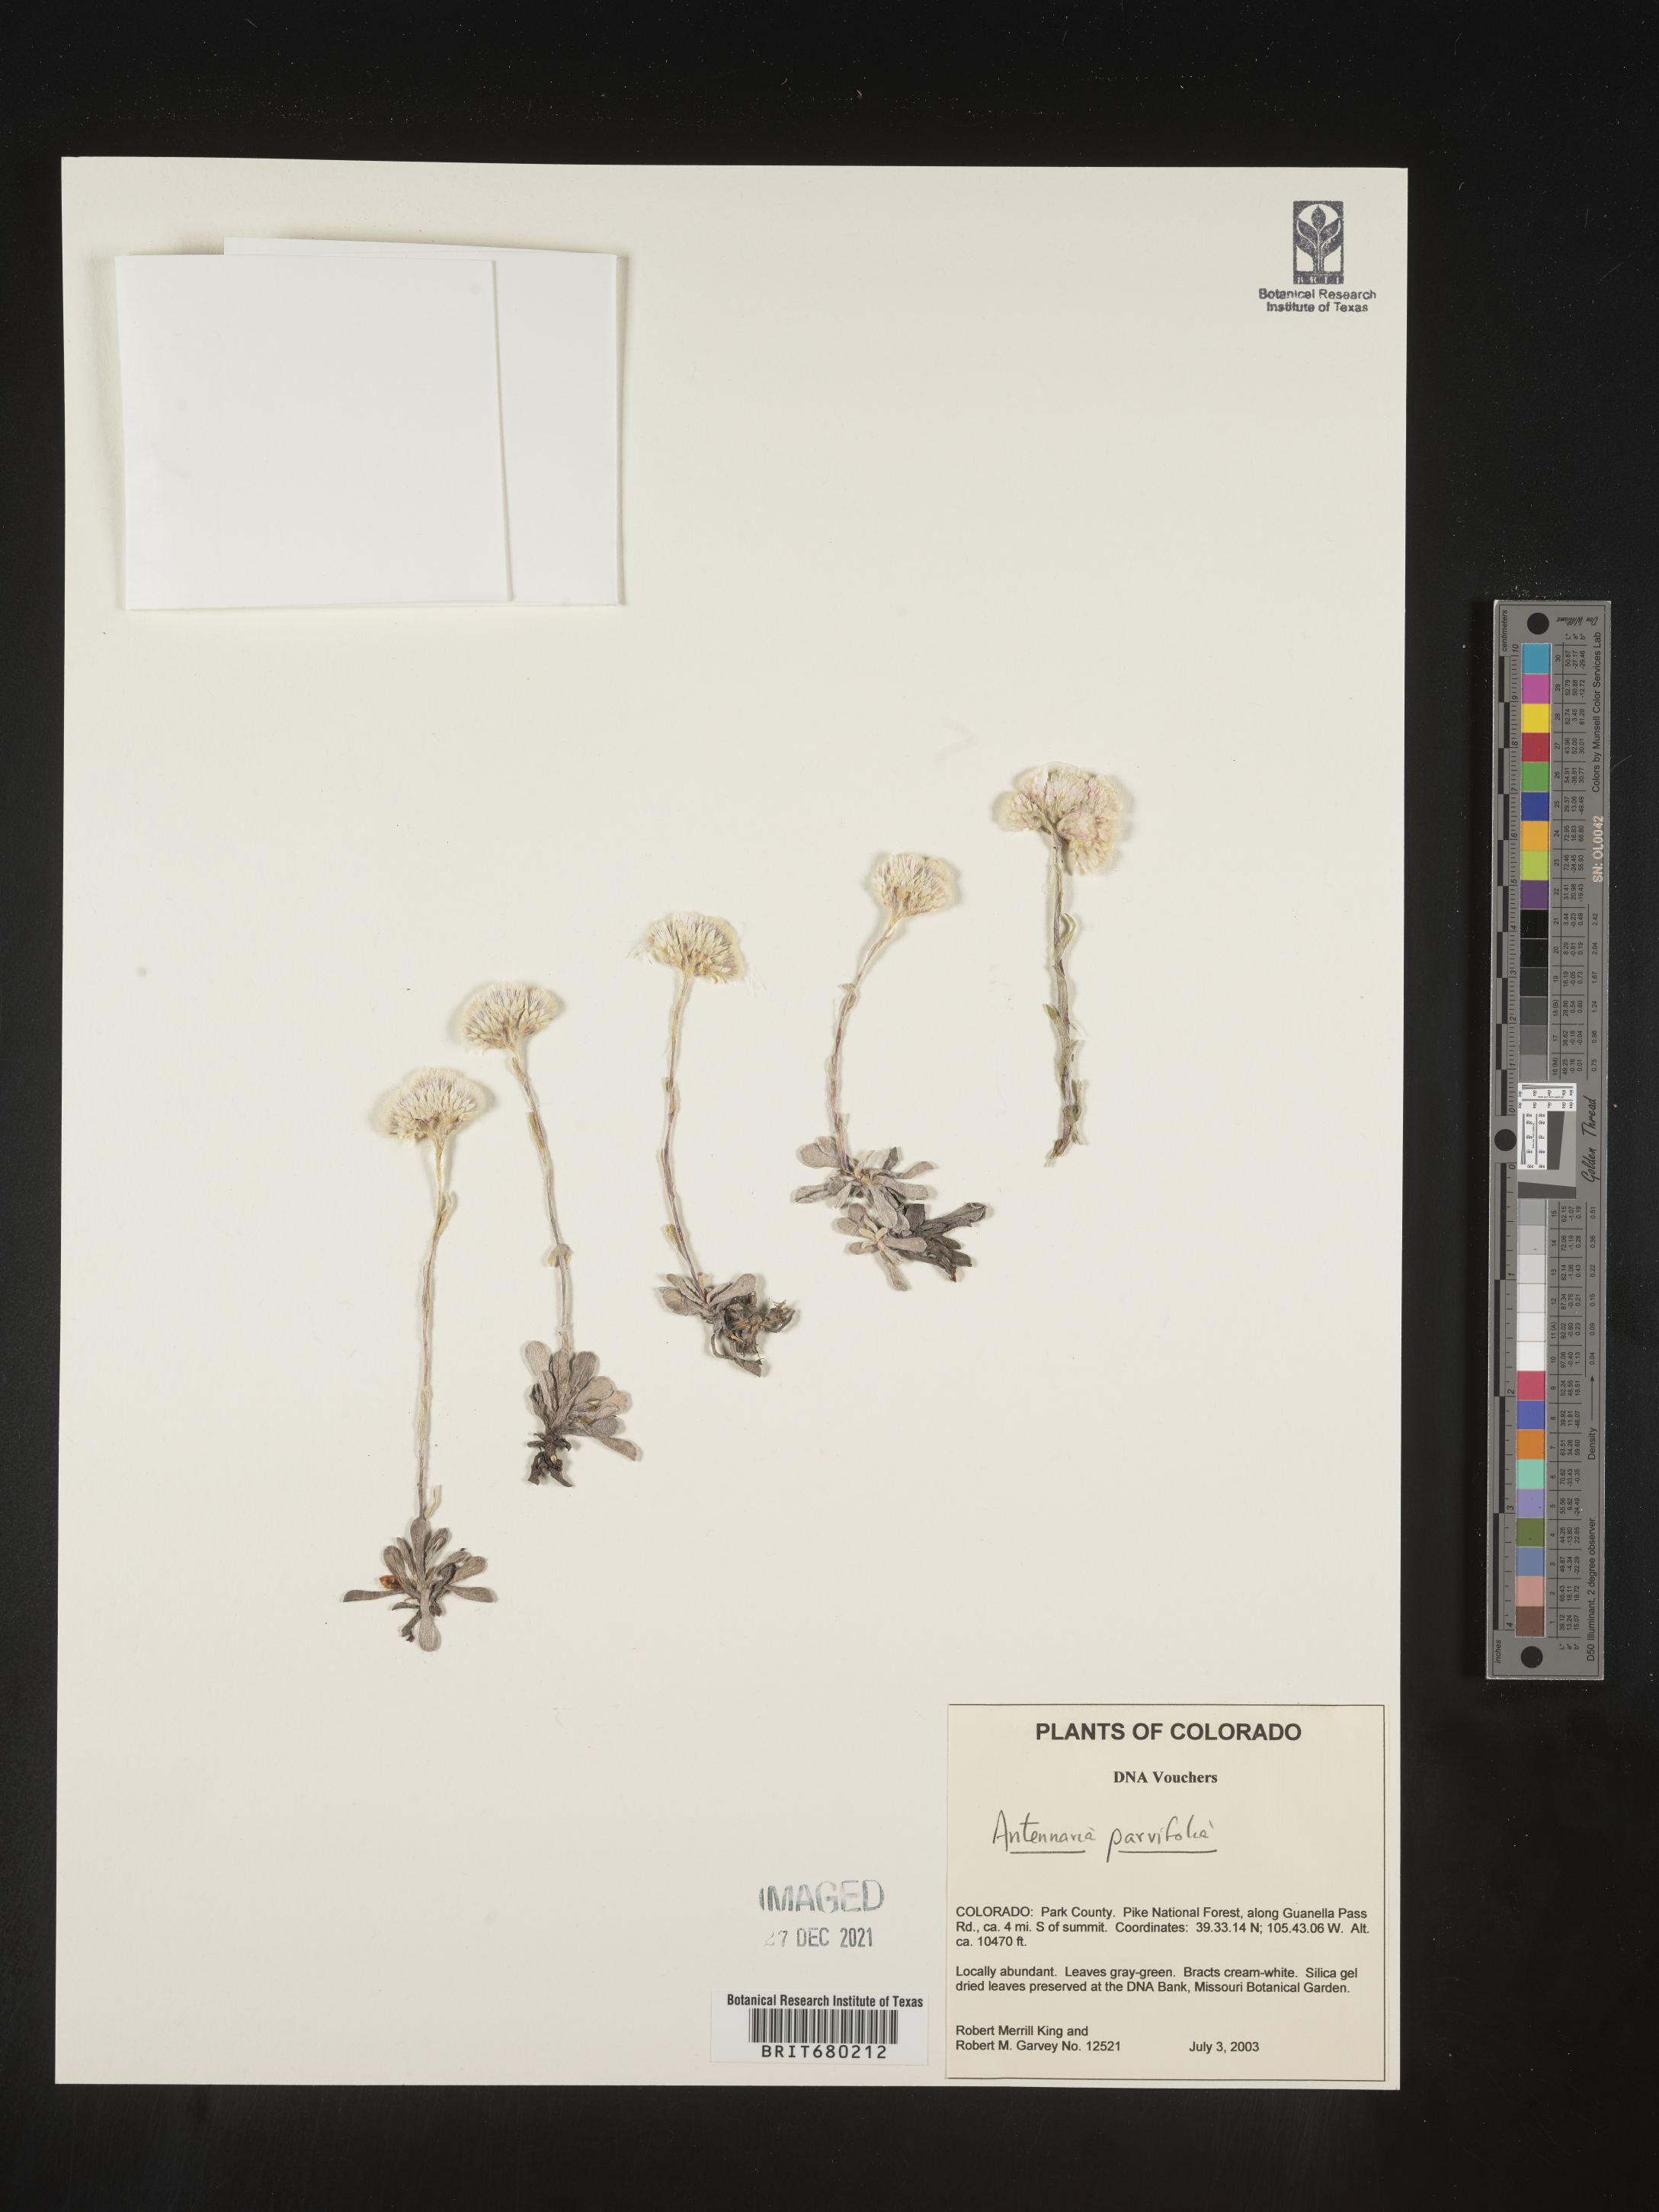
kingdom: Plantae
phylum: Tracheophyta
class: Magnoliopsida
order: Asterales
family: Asteraceae
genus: Antennaria
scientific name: Antennaria plantaginifolia
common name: Plantain-leaved pussytoes
